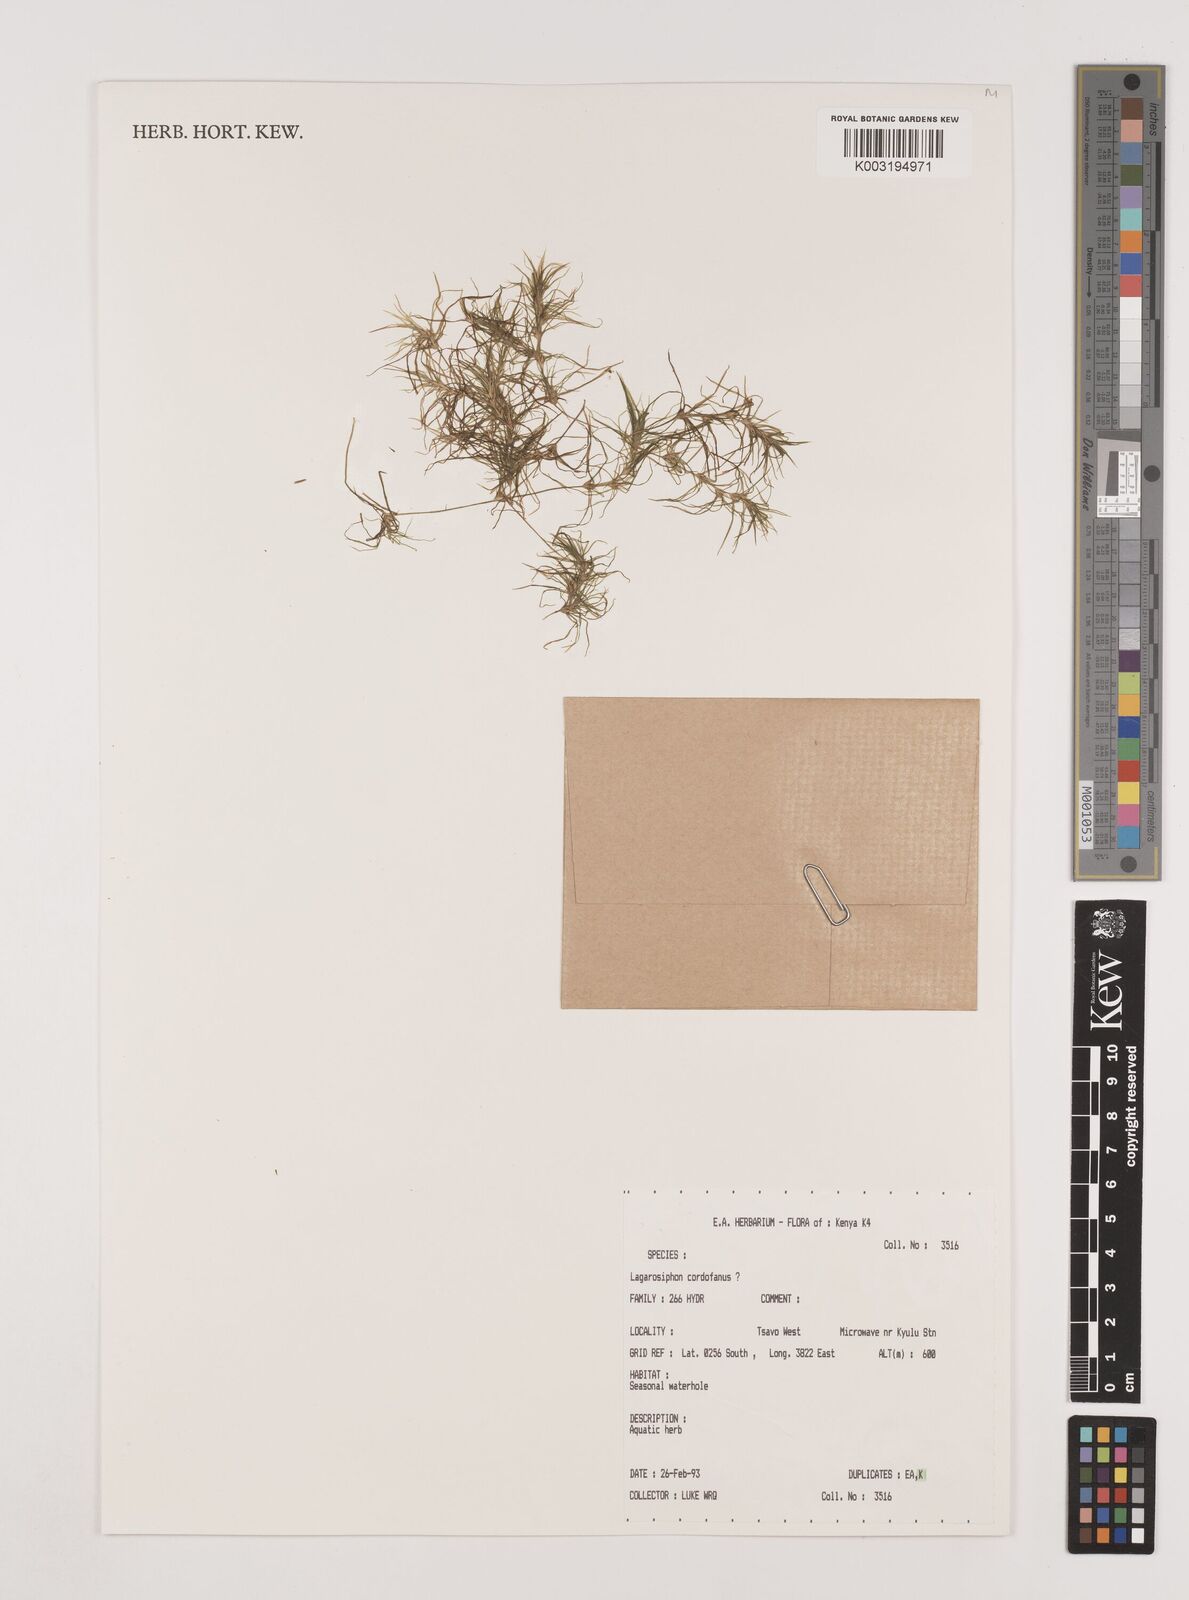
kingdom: Plantae
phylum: Tracheophyta
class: Liliopsida
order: Alismatales
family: Hydrocharitaceae
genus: Lagarosiphon
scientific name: Lagarosiphon cordofanus
